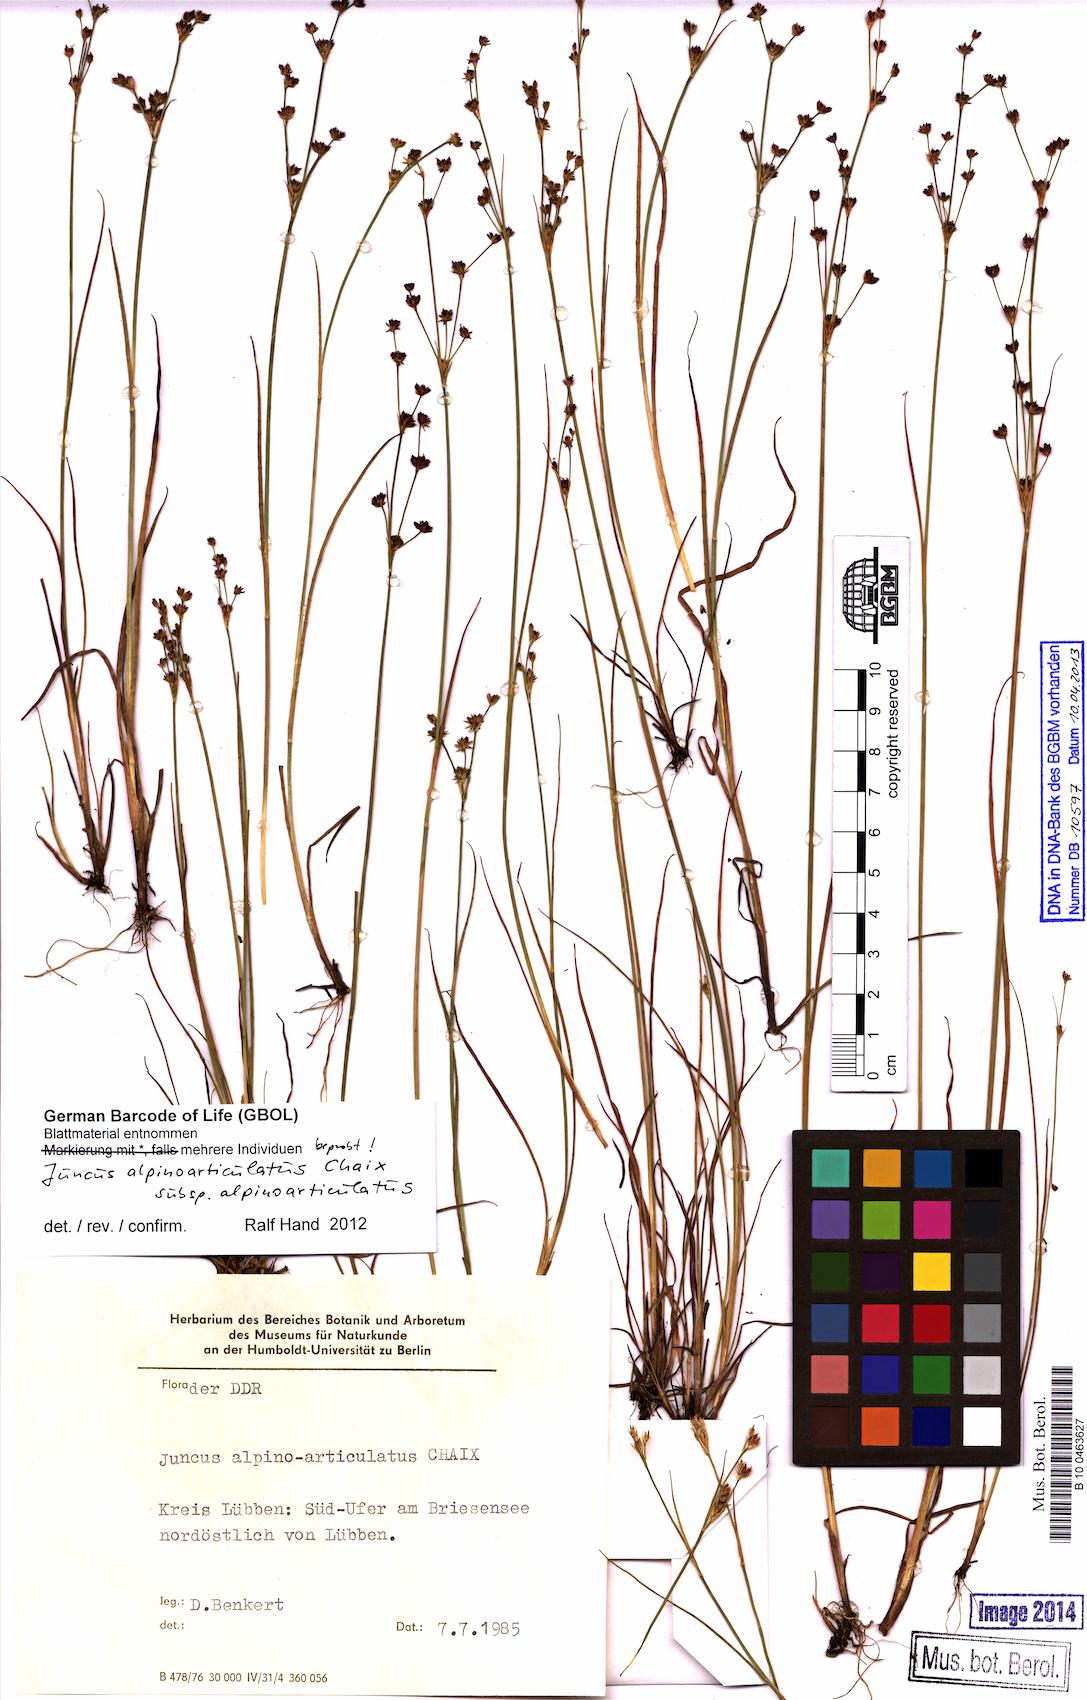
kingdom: Plantae
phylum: Tracheophyta
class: Liliopsida
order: Poales
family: Juncaceae
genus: Juncus
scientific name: Juncus alpinoarticulatus
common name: Alpine rush
